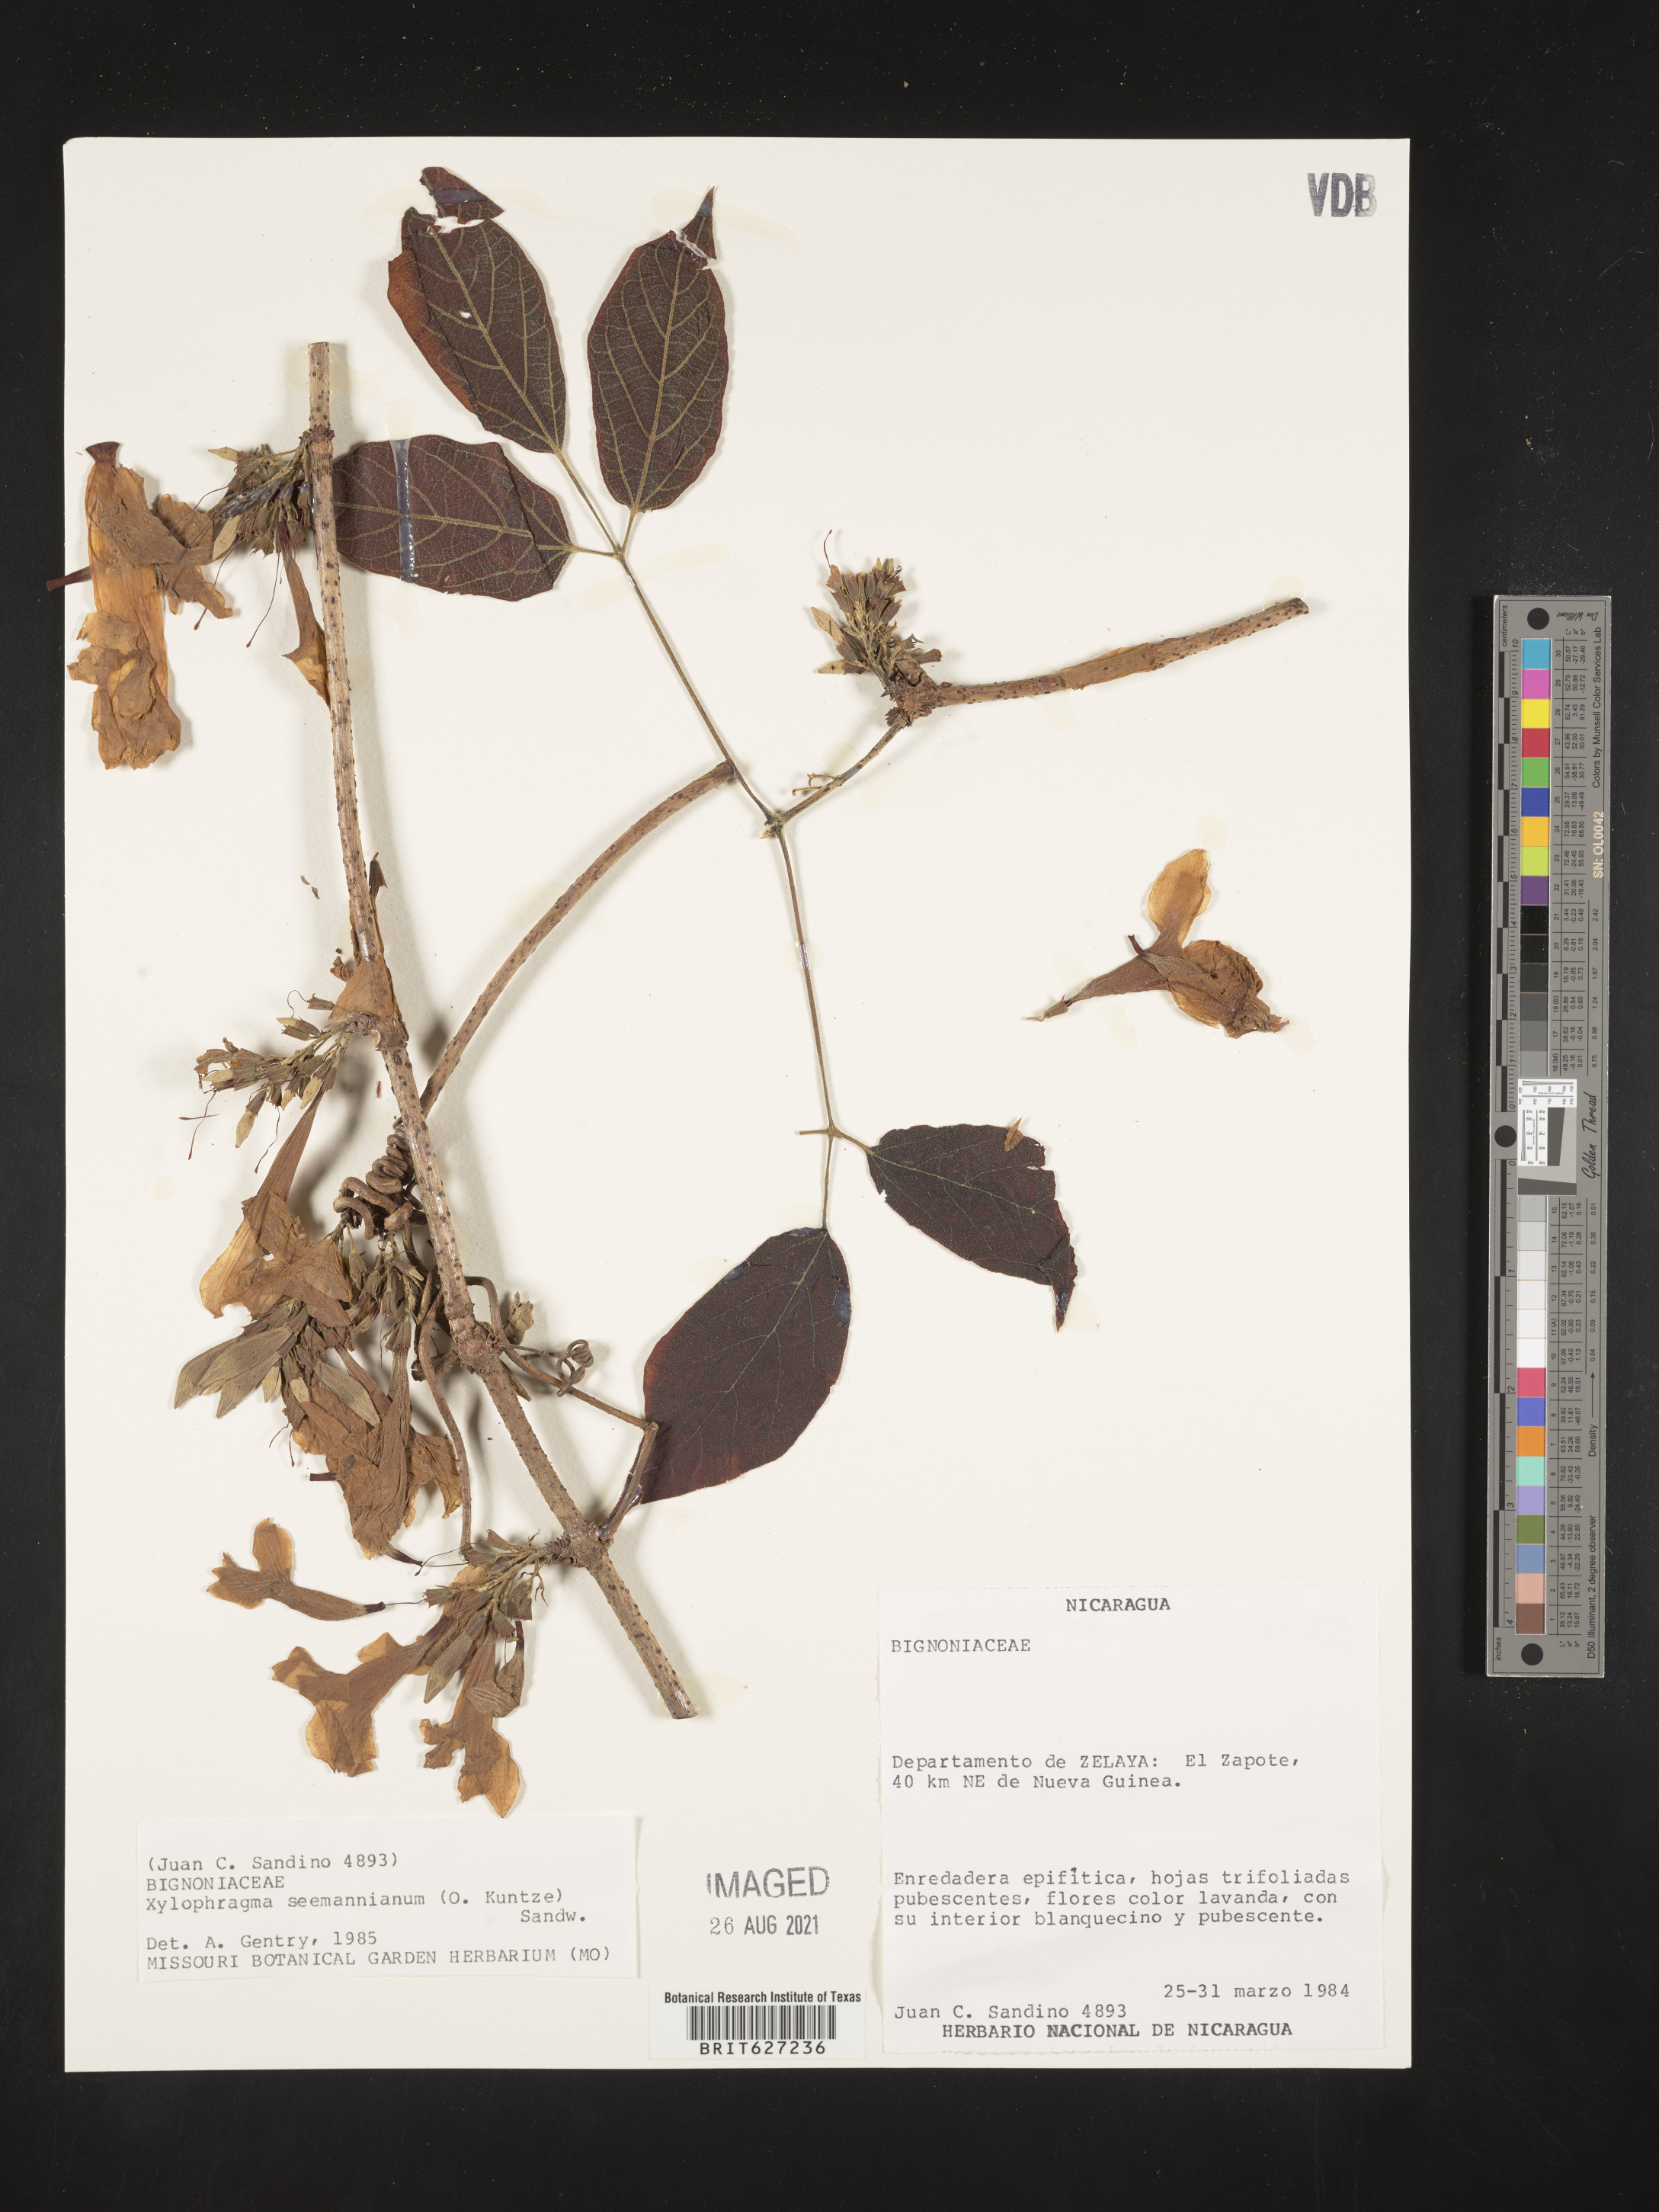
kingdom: Plantae
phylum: Tracheophyta
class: Magnoliopsida
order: Lamiales
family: Bignoniaceae
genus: Xylophragma
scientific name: Xylophragma seemanniana
